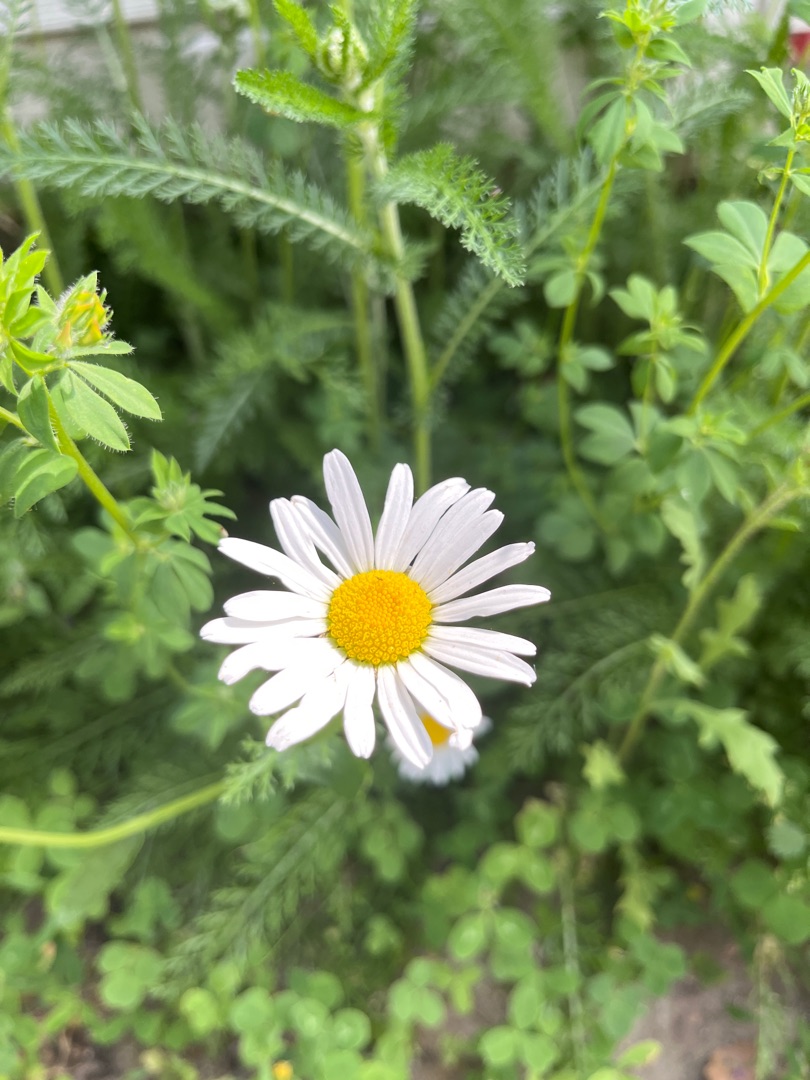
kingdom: Plantae
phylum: Tracheophyta
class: Magnoliopsida
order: Asterales
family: Asteraceae
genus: Leucanthemum
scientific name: Leucanthemum vulgare
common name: Hvid okseøje
